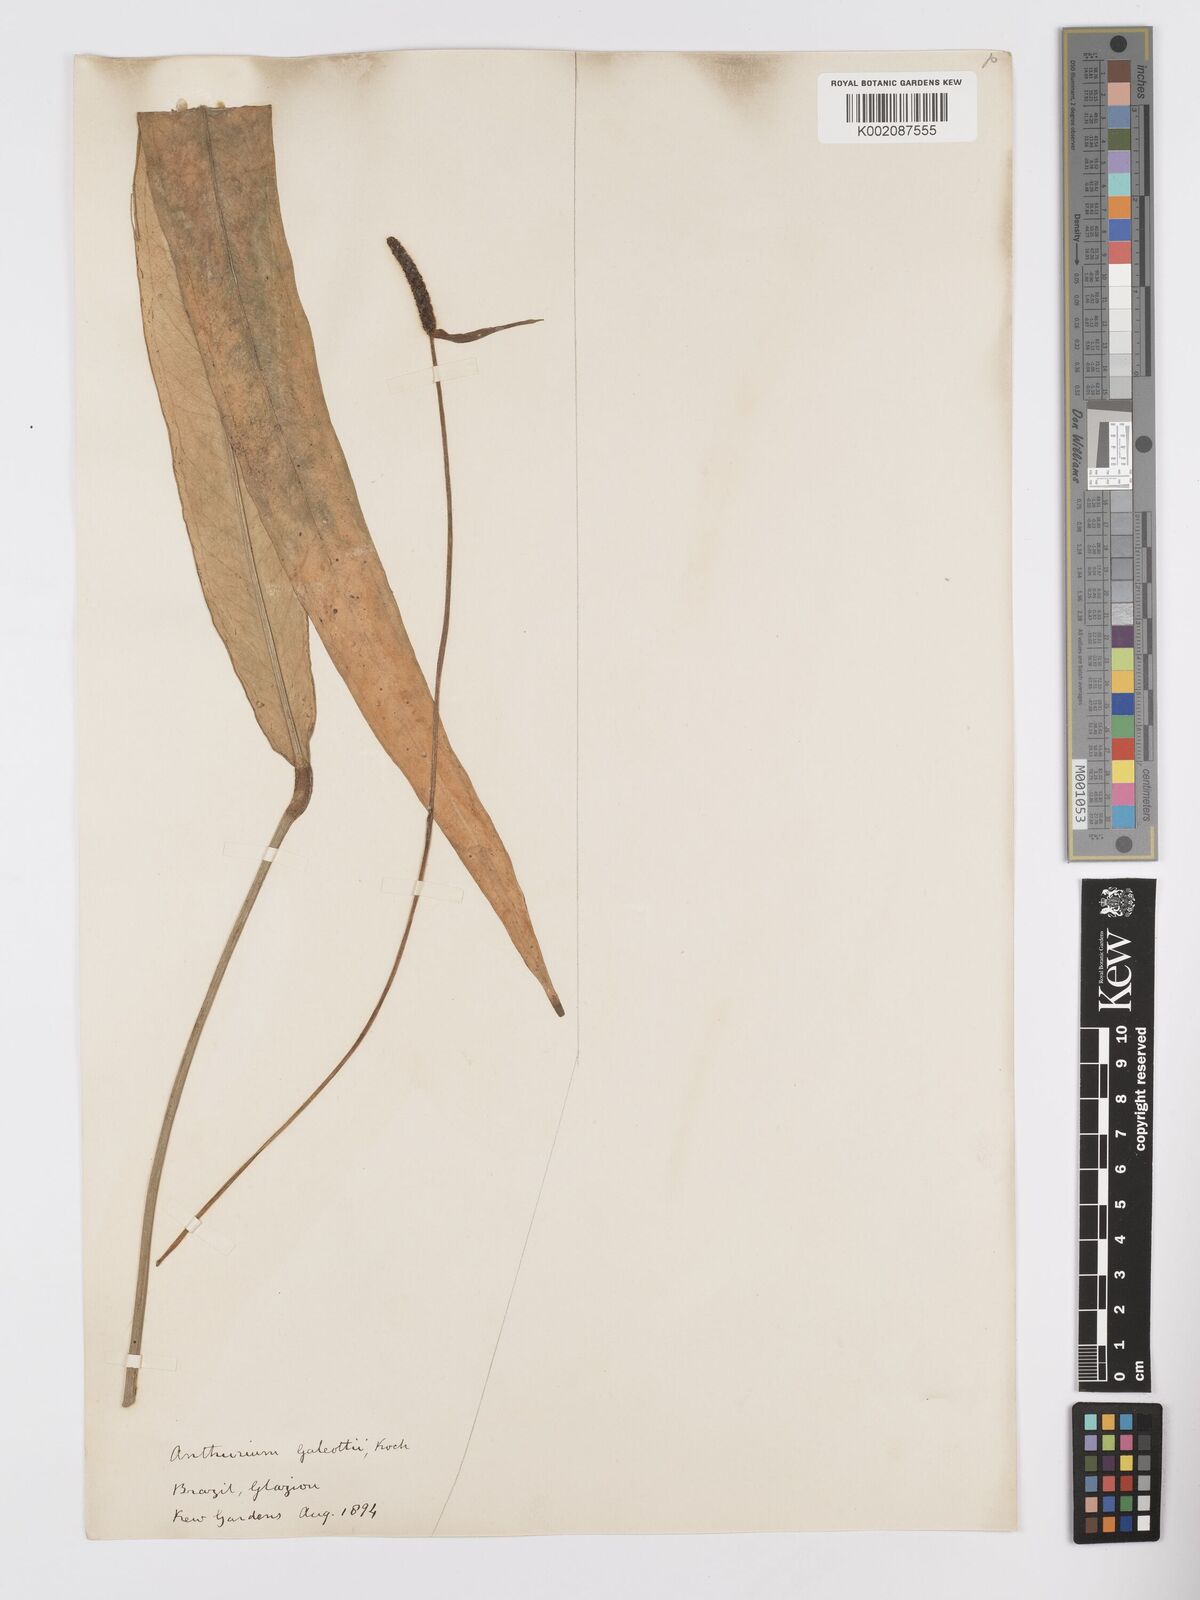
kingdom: Plantae
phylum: Tracheophyta
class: Liliopsida
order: Alismatales
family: Araceae
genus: Anthurium
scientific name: Anthurium galeottii
